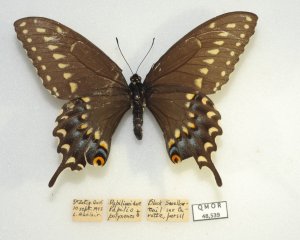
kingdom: Animalia
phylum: Arthropoda
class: Insecta
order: Lepidoptera
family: Papilionidae
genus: Papilio
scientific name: Papilio polyxenes
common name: Black Swallowtail
